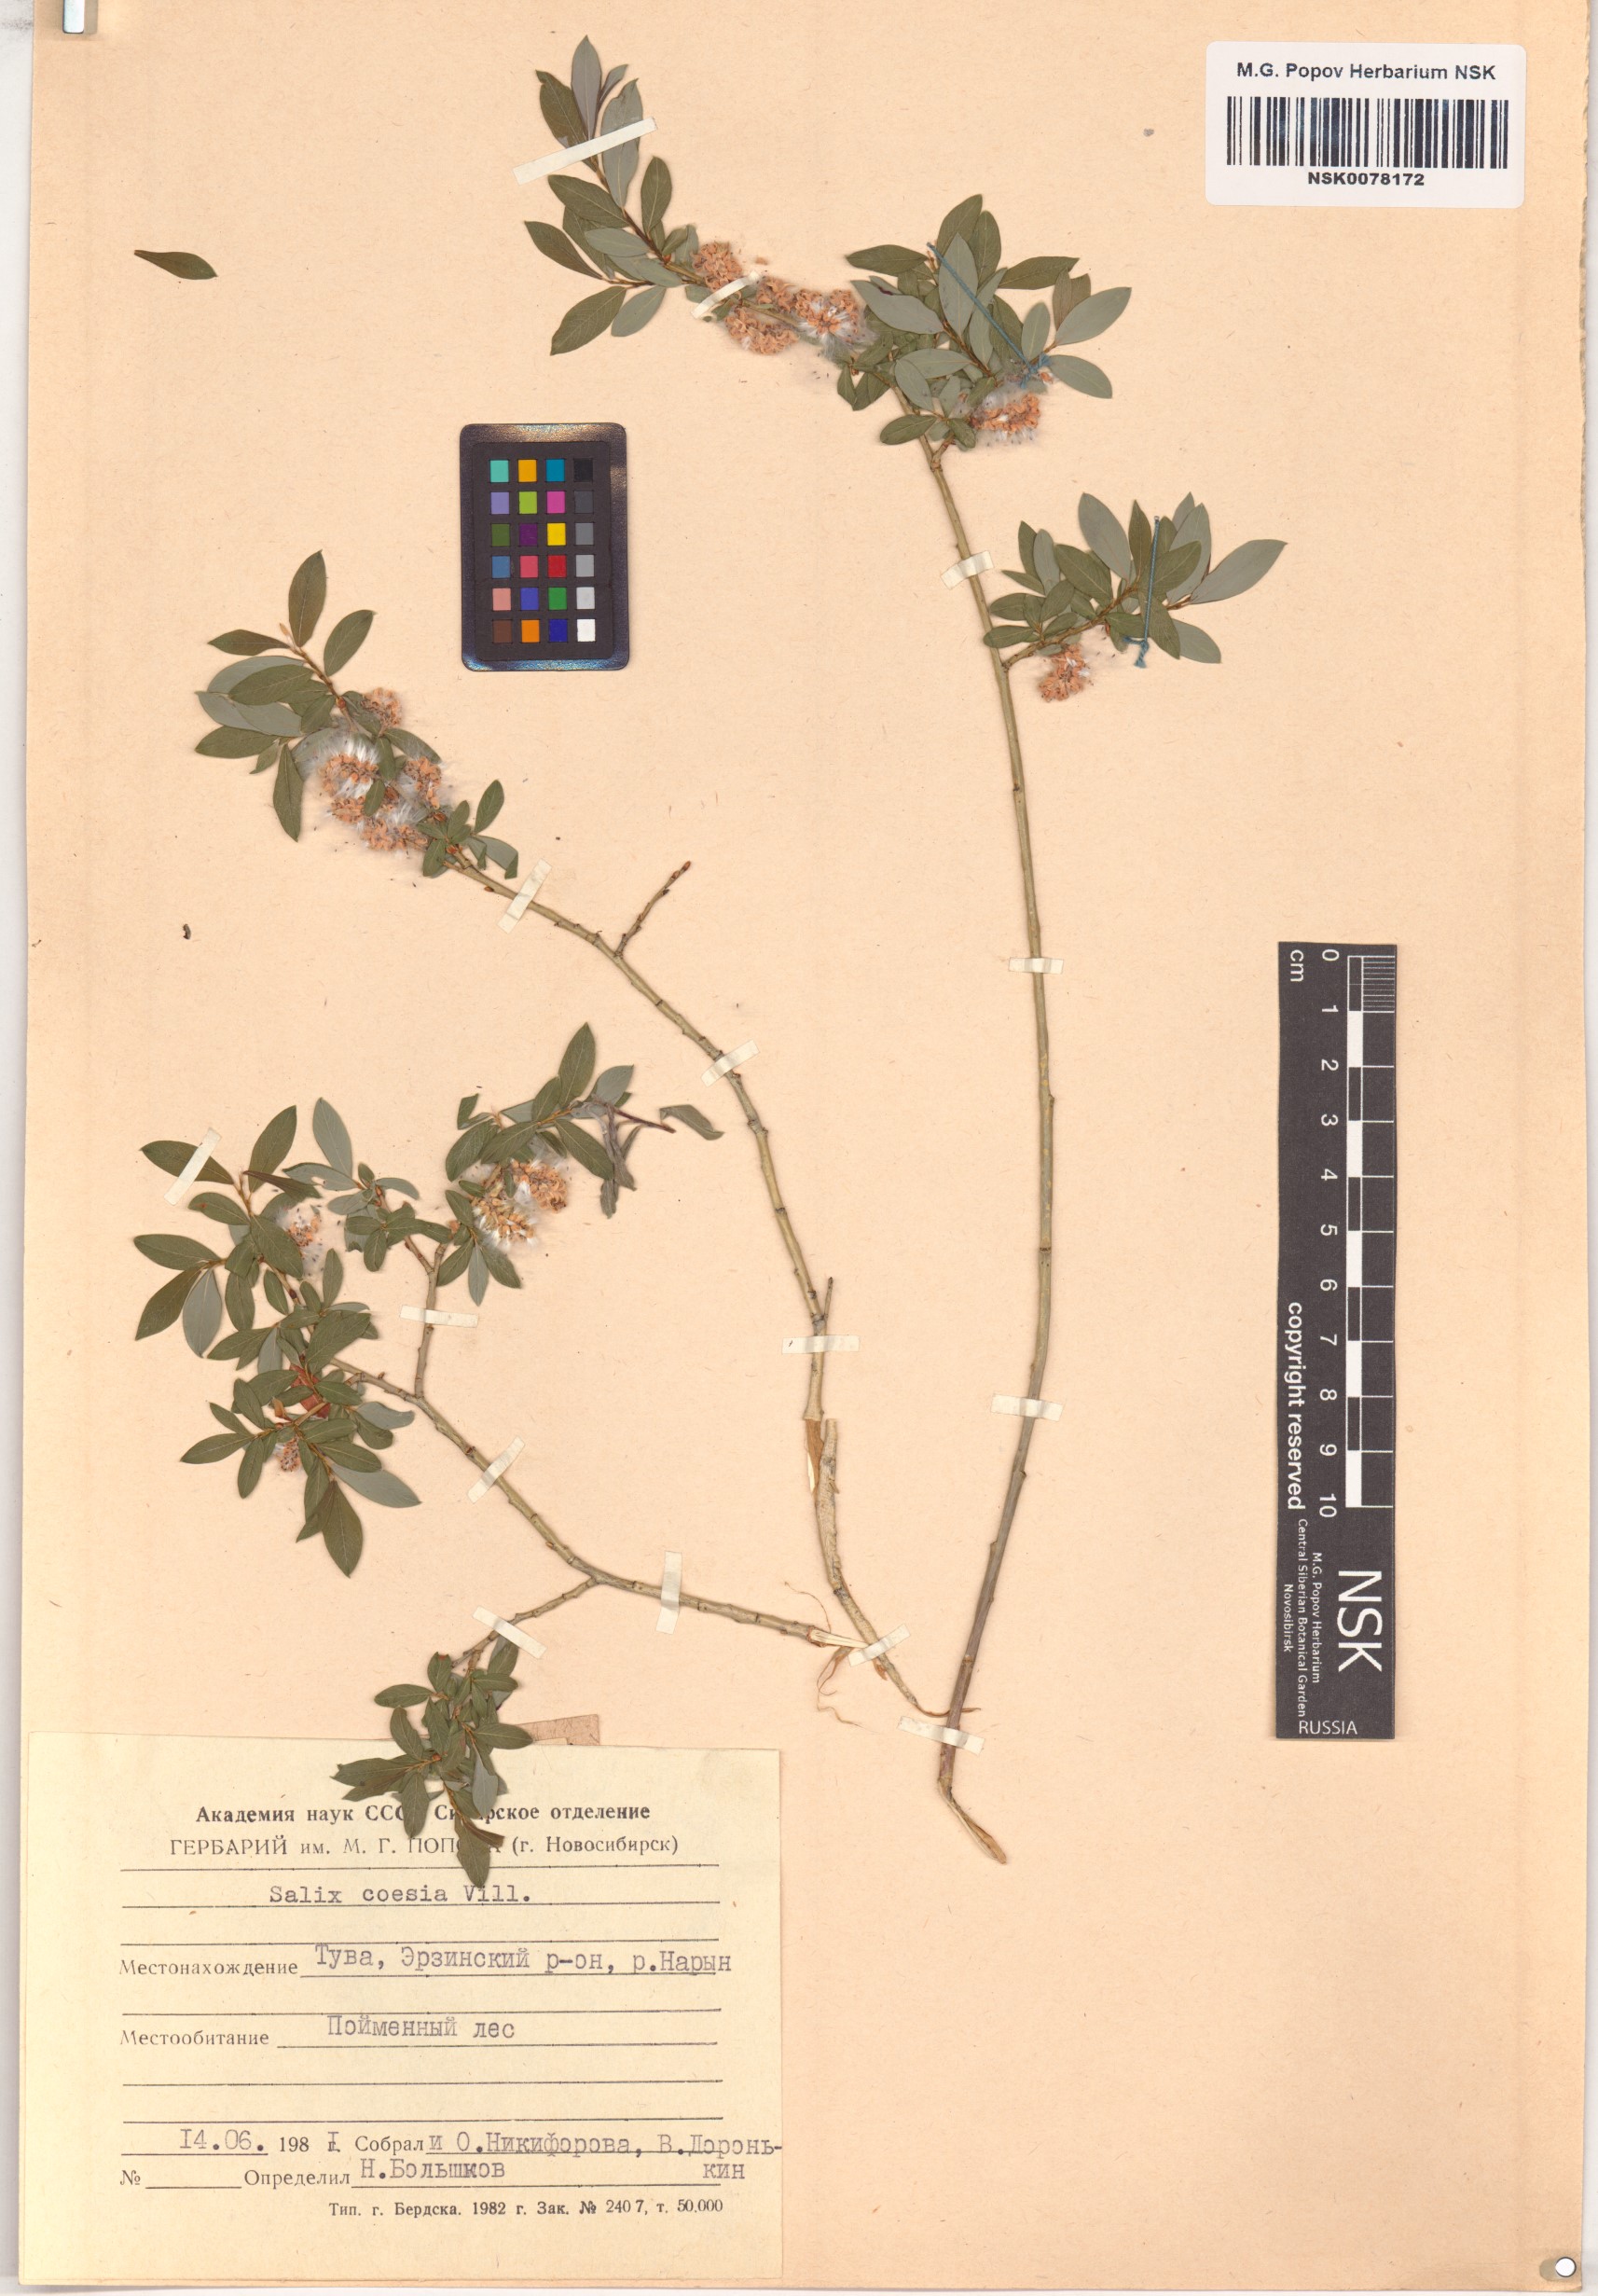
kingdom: Plantae
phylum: Tracheophyta
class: Magnoliopsida
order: Malpighiales
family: Salicaceae
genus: Salix
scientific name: Salix caesia
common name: Blue willow
